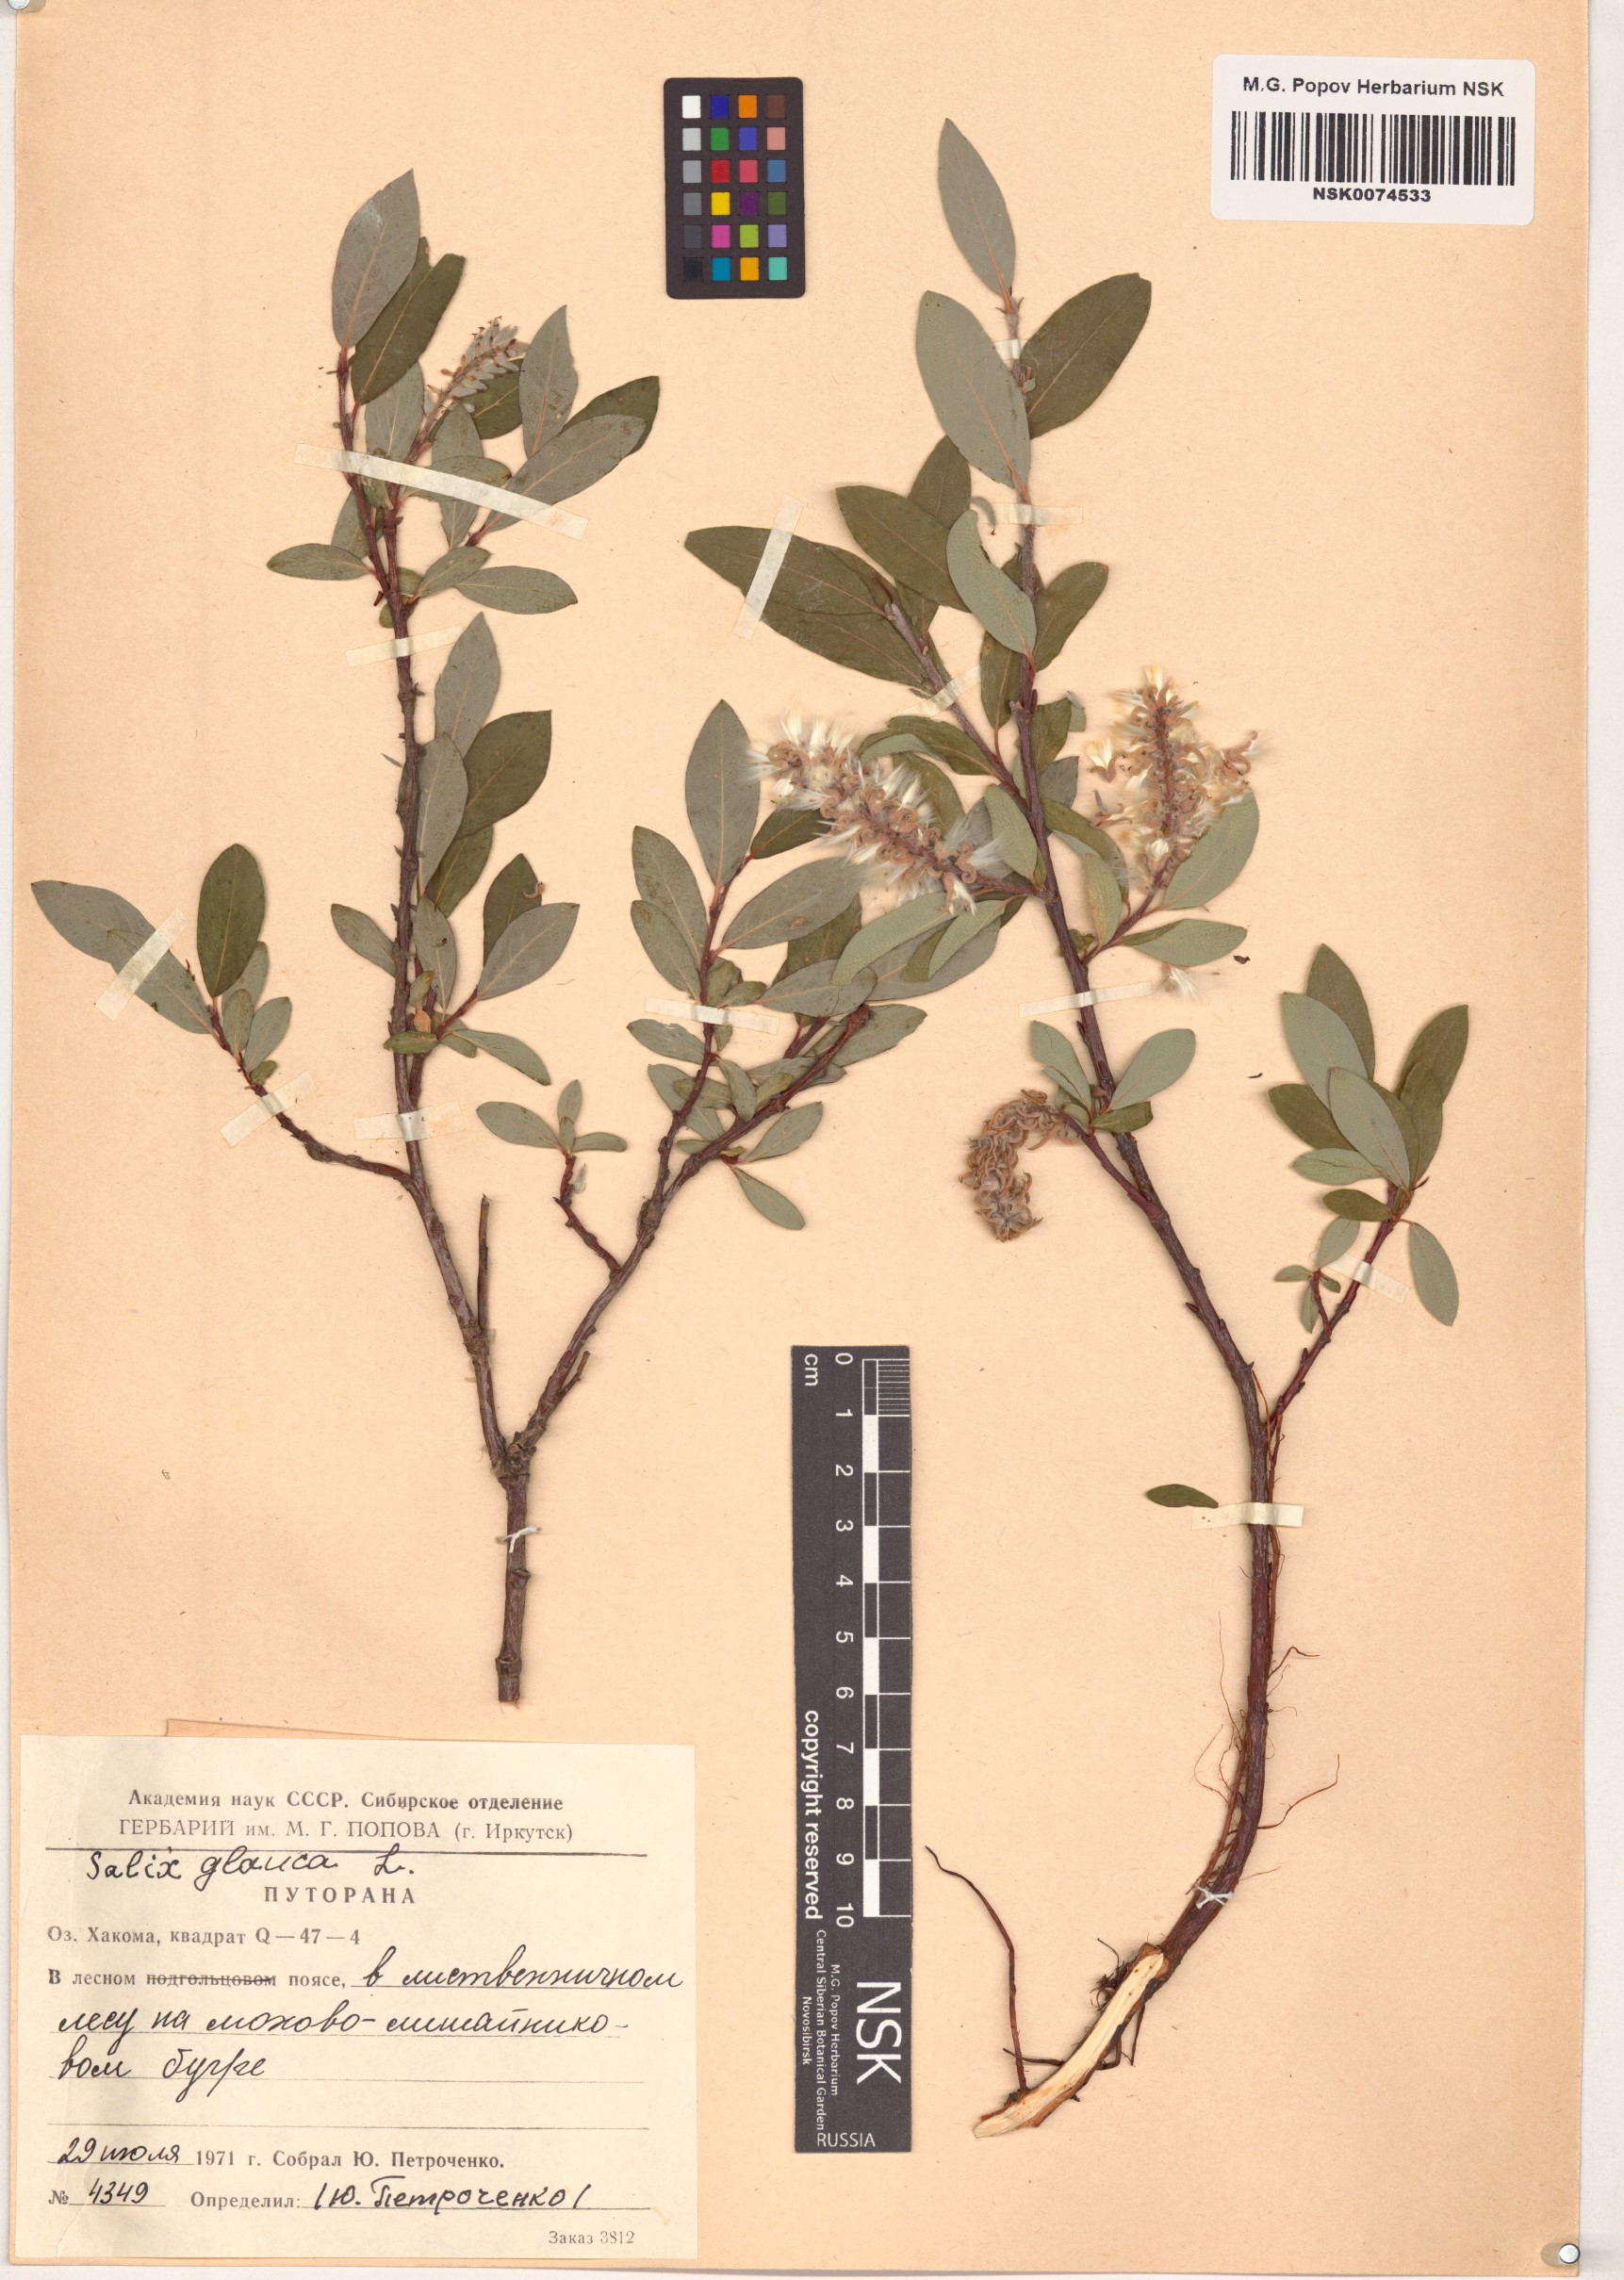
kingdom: Plantae
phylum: Tracheophyta
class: Magnoliopsida
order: Malpighiales
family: Salicaceae
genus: Salix
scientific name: Salix glauca
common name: Glaucous willow
